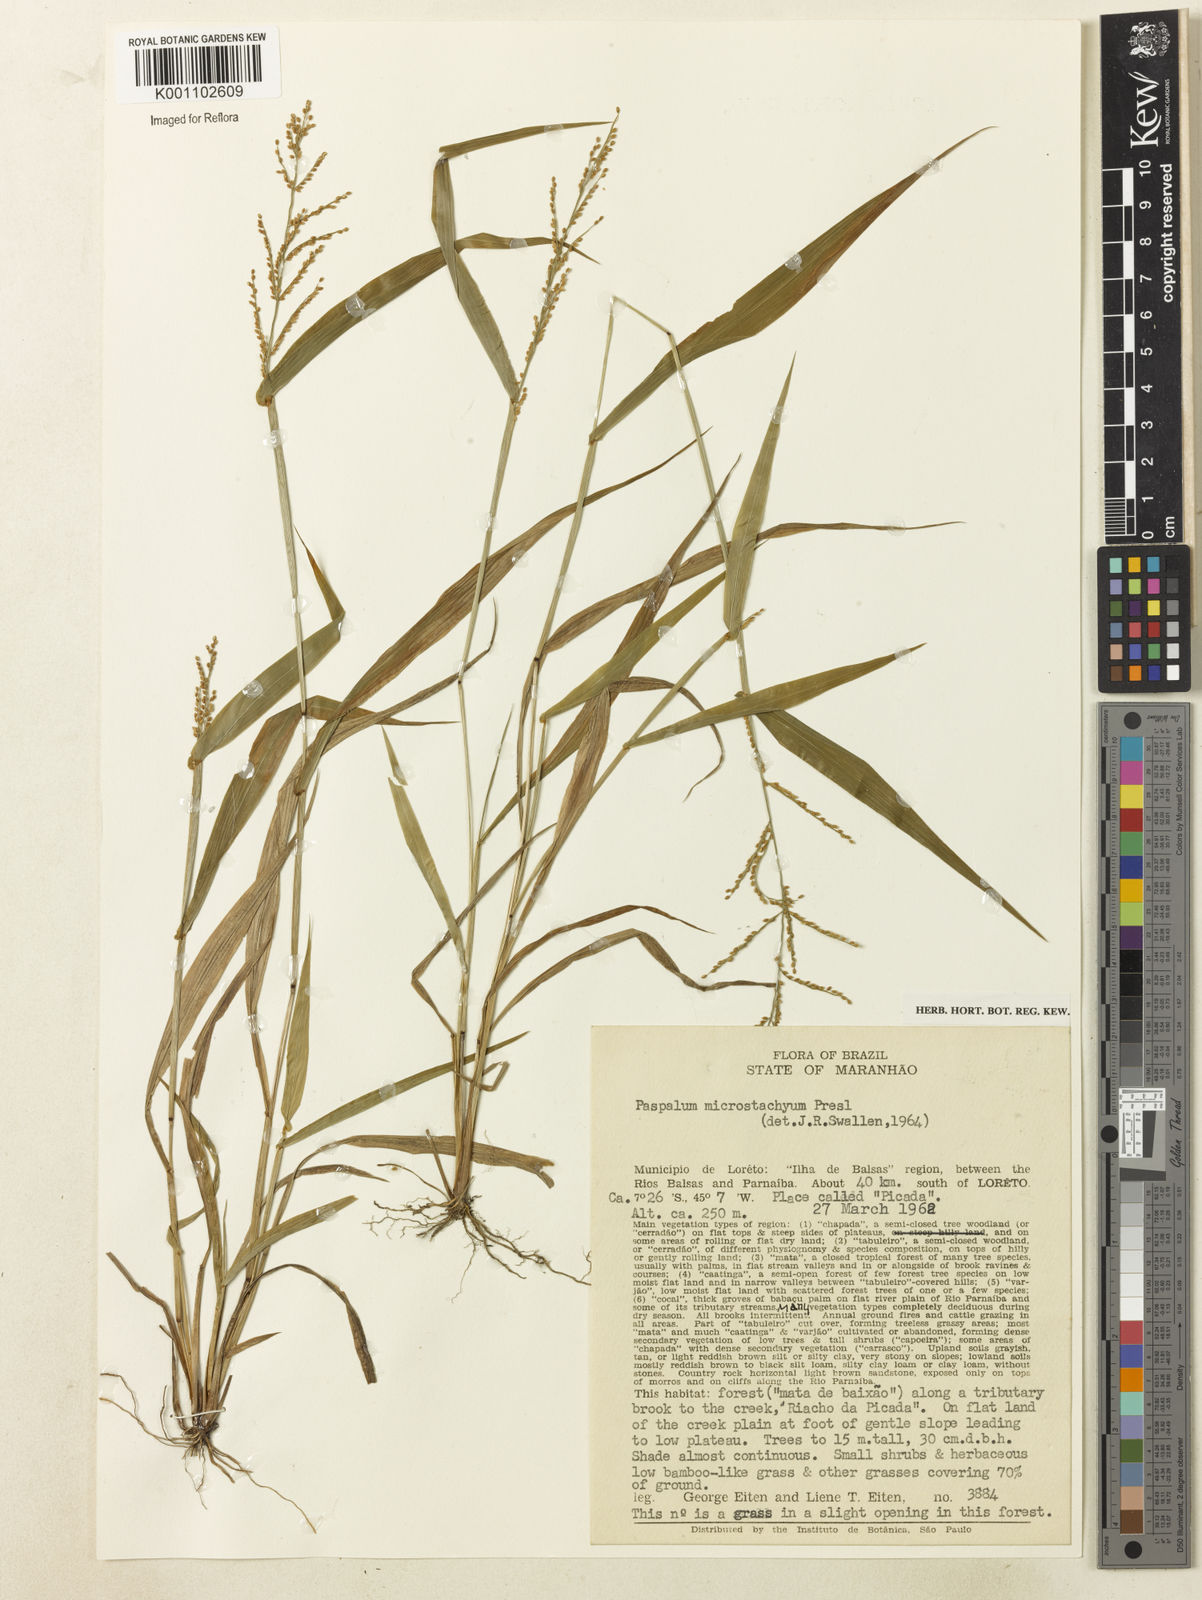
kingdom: Plantae
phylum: Tracheophyta
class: Liliopsida
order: Poales
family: Poaceae
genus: Paspalum
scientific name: Paspalum microstachyum
